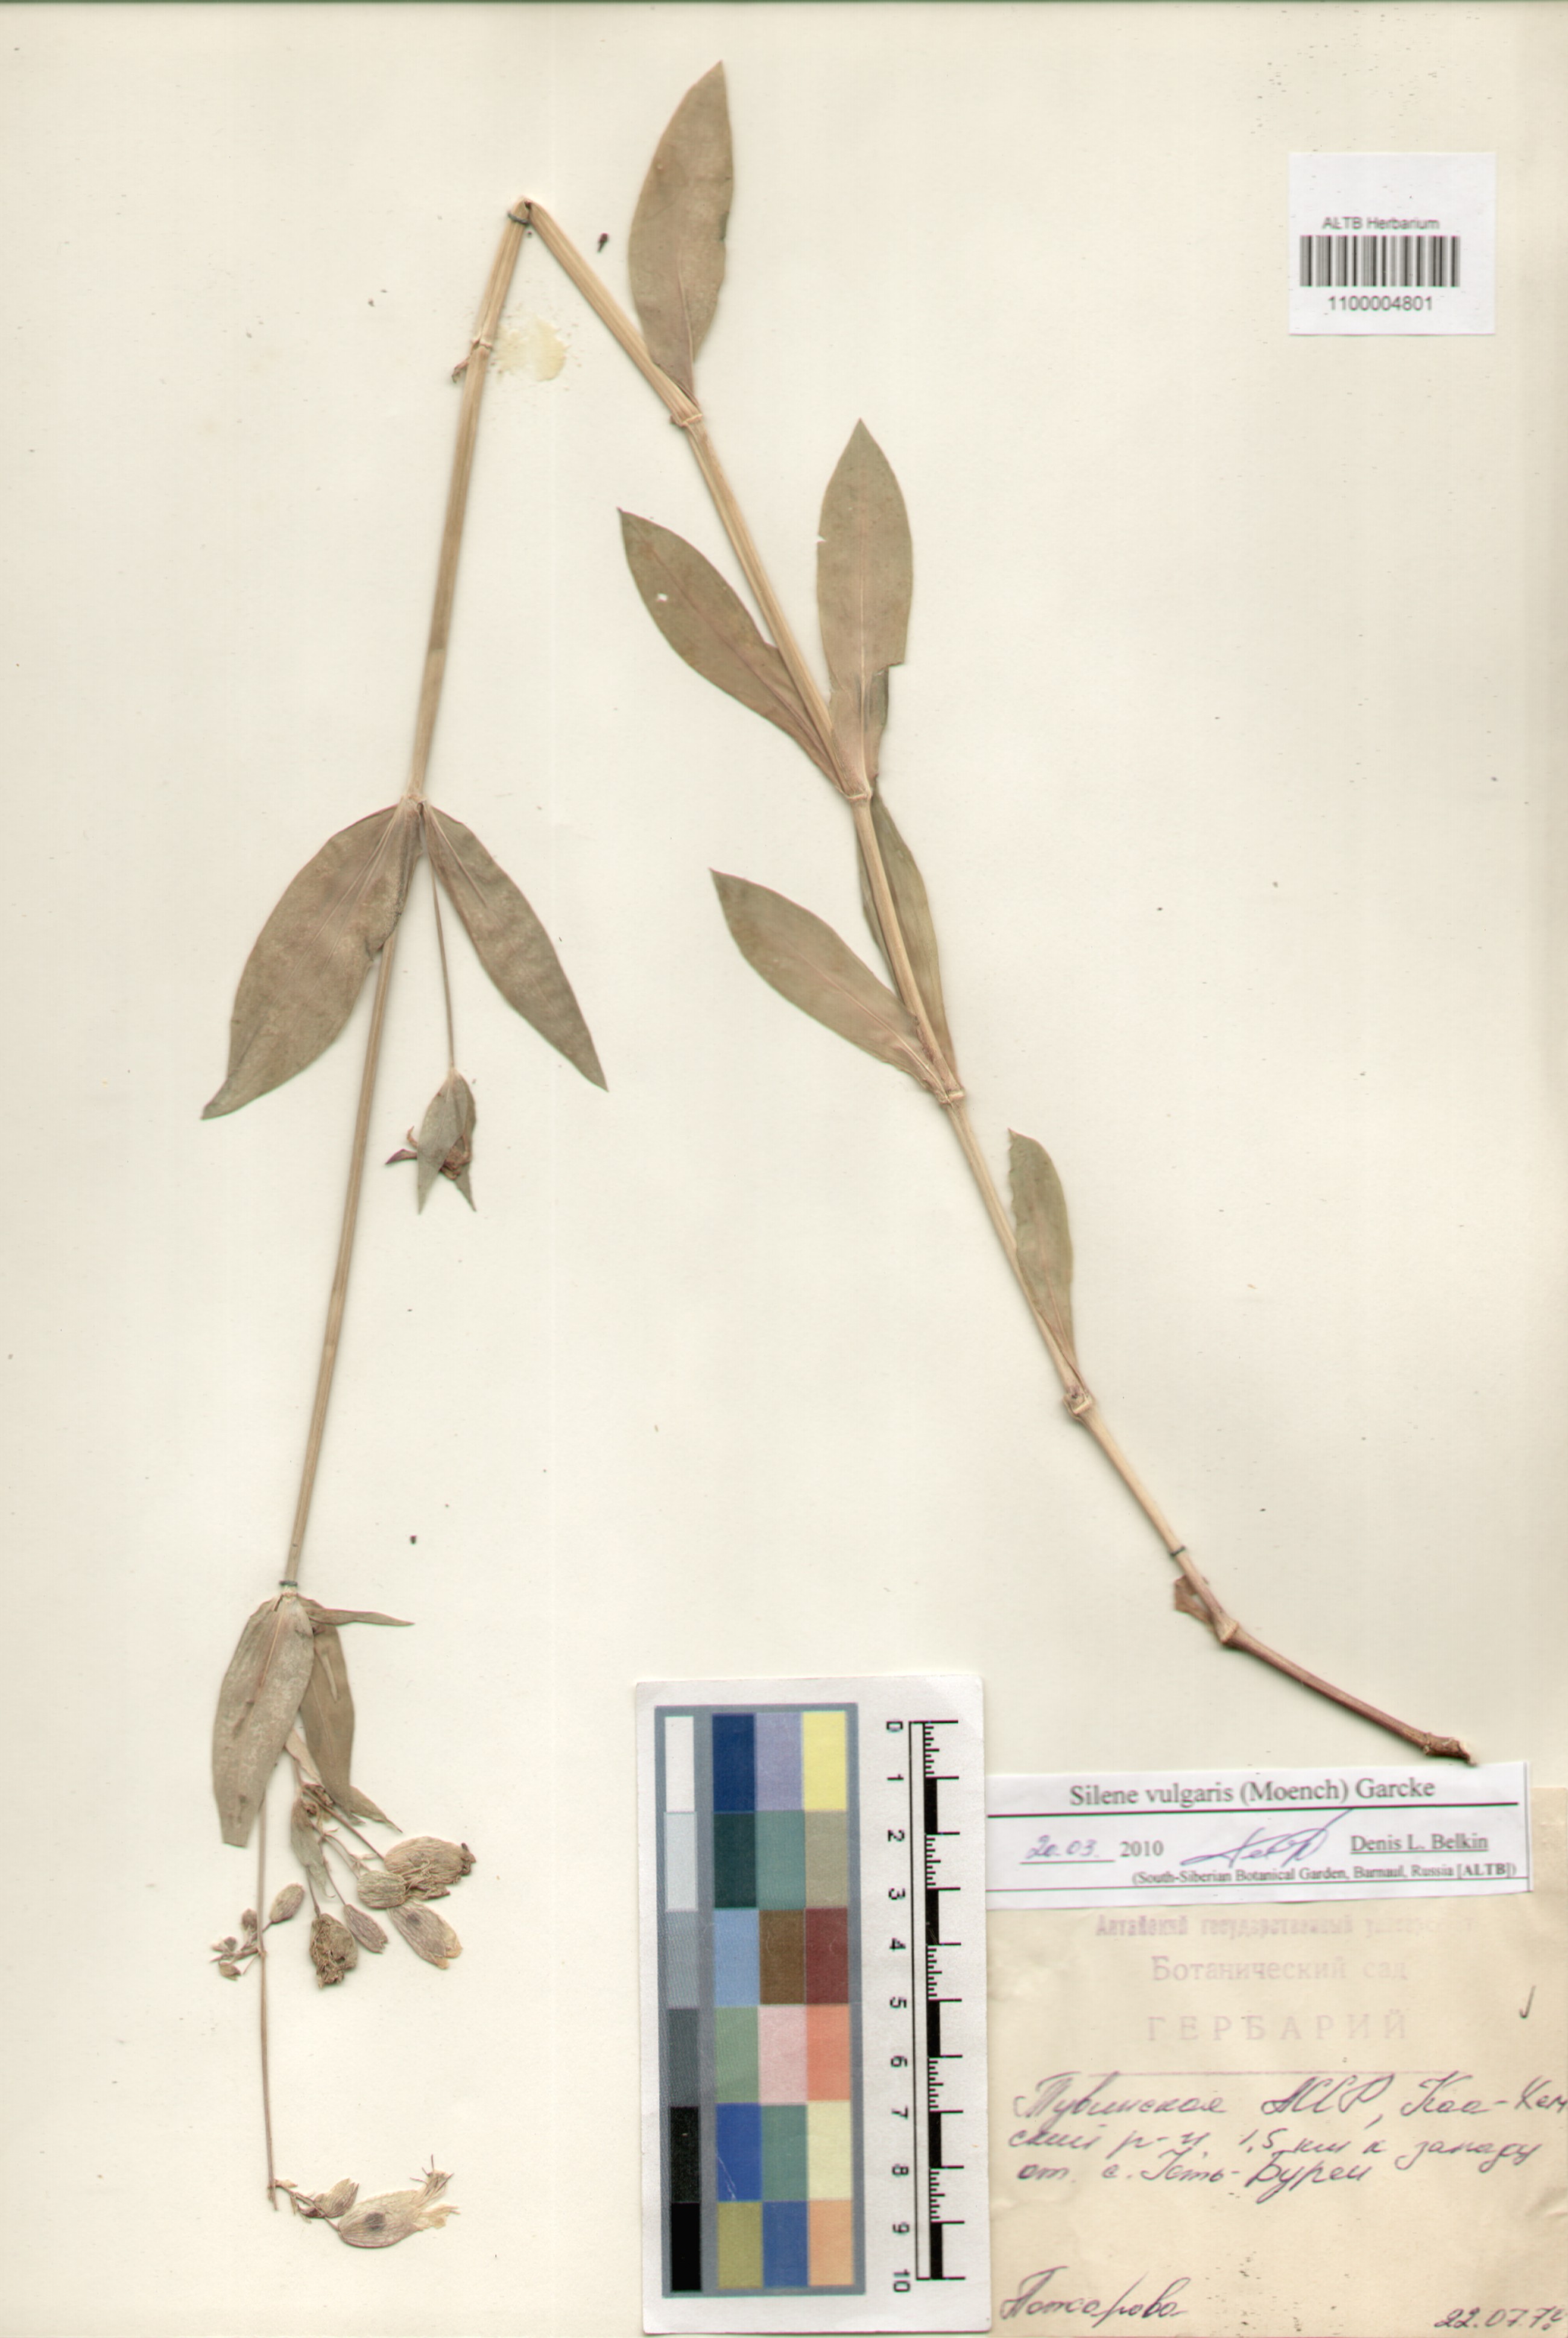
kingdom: Plantae
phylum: Tracheophyta
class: Magnoliopsida
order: Caryophyllales
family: Caryophyllaceae
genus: Silene
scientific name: Silene vulgaris
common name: Bladder campion
